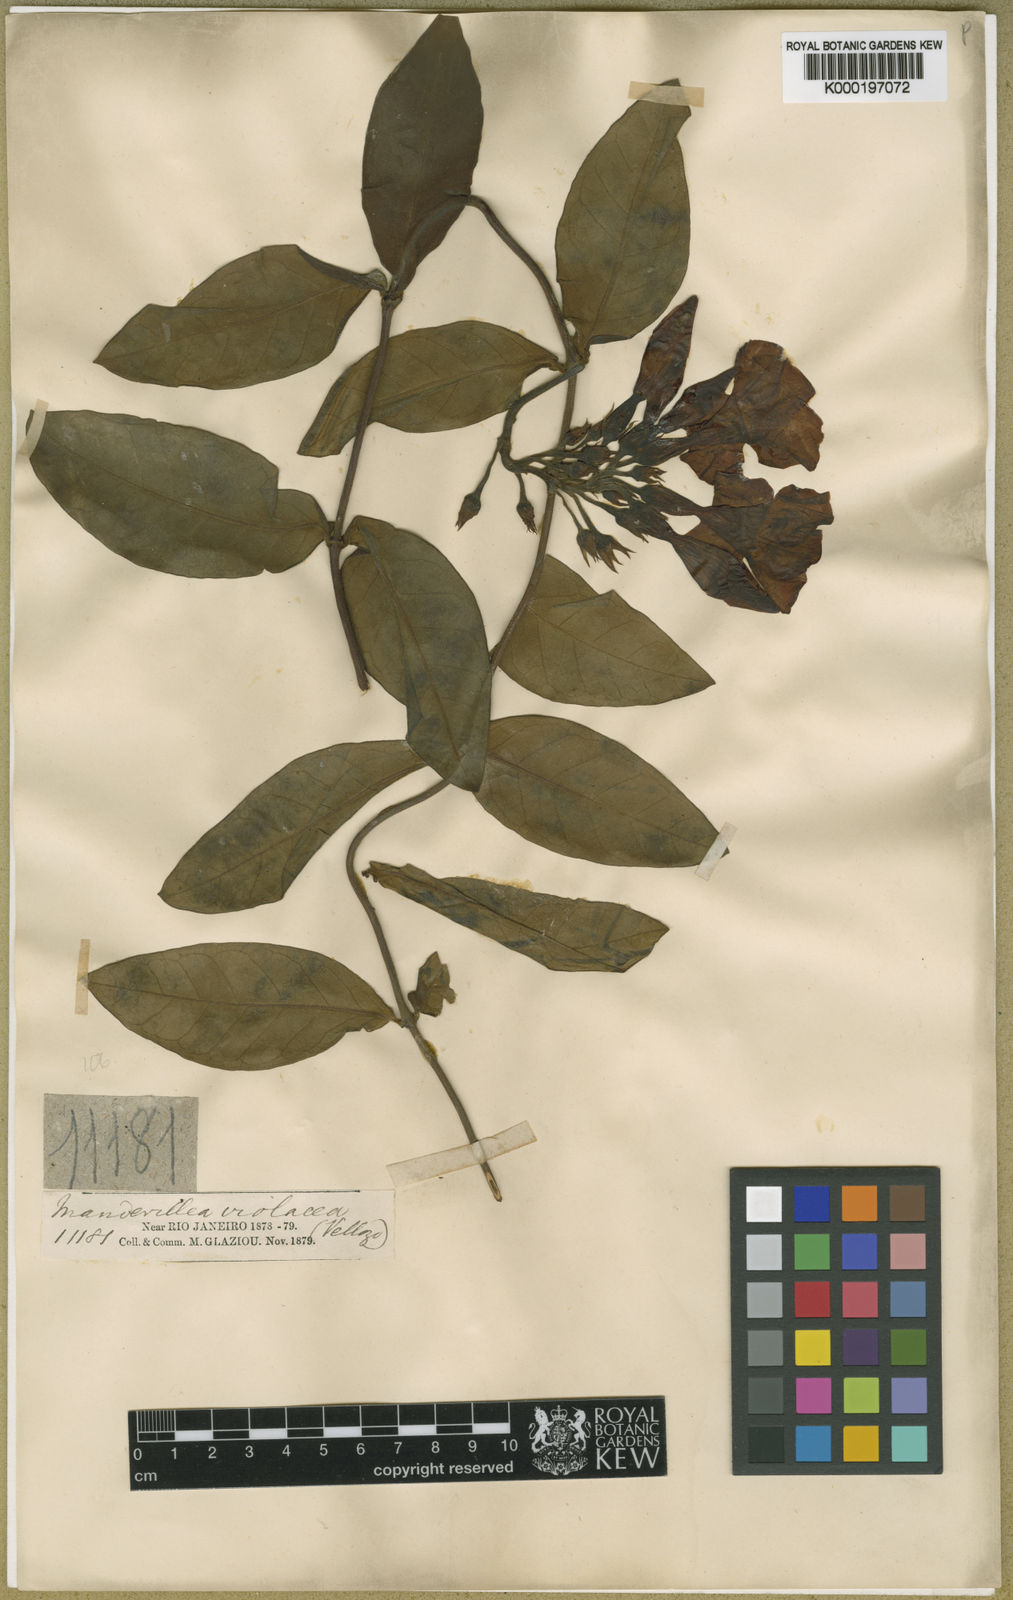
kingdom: Plantae
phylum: Tracheophyta
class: Magnoliopsida
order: Gentianales
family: Apocynaceae
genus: Temnadenia
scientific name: Temnadenia violacea
